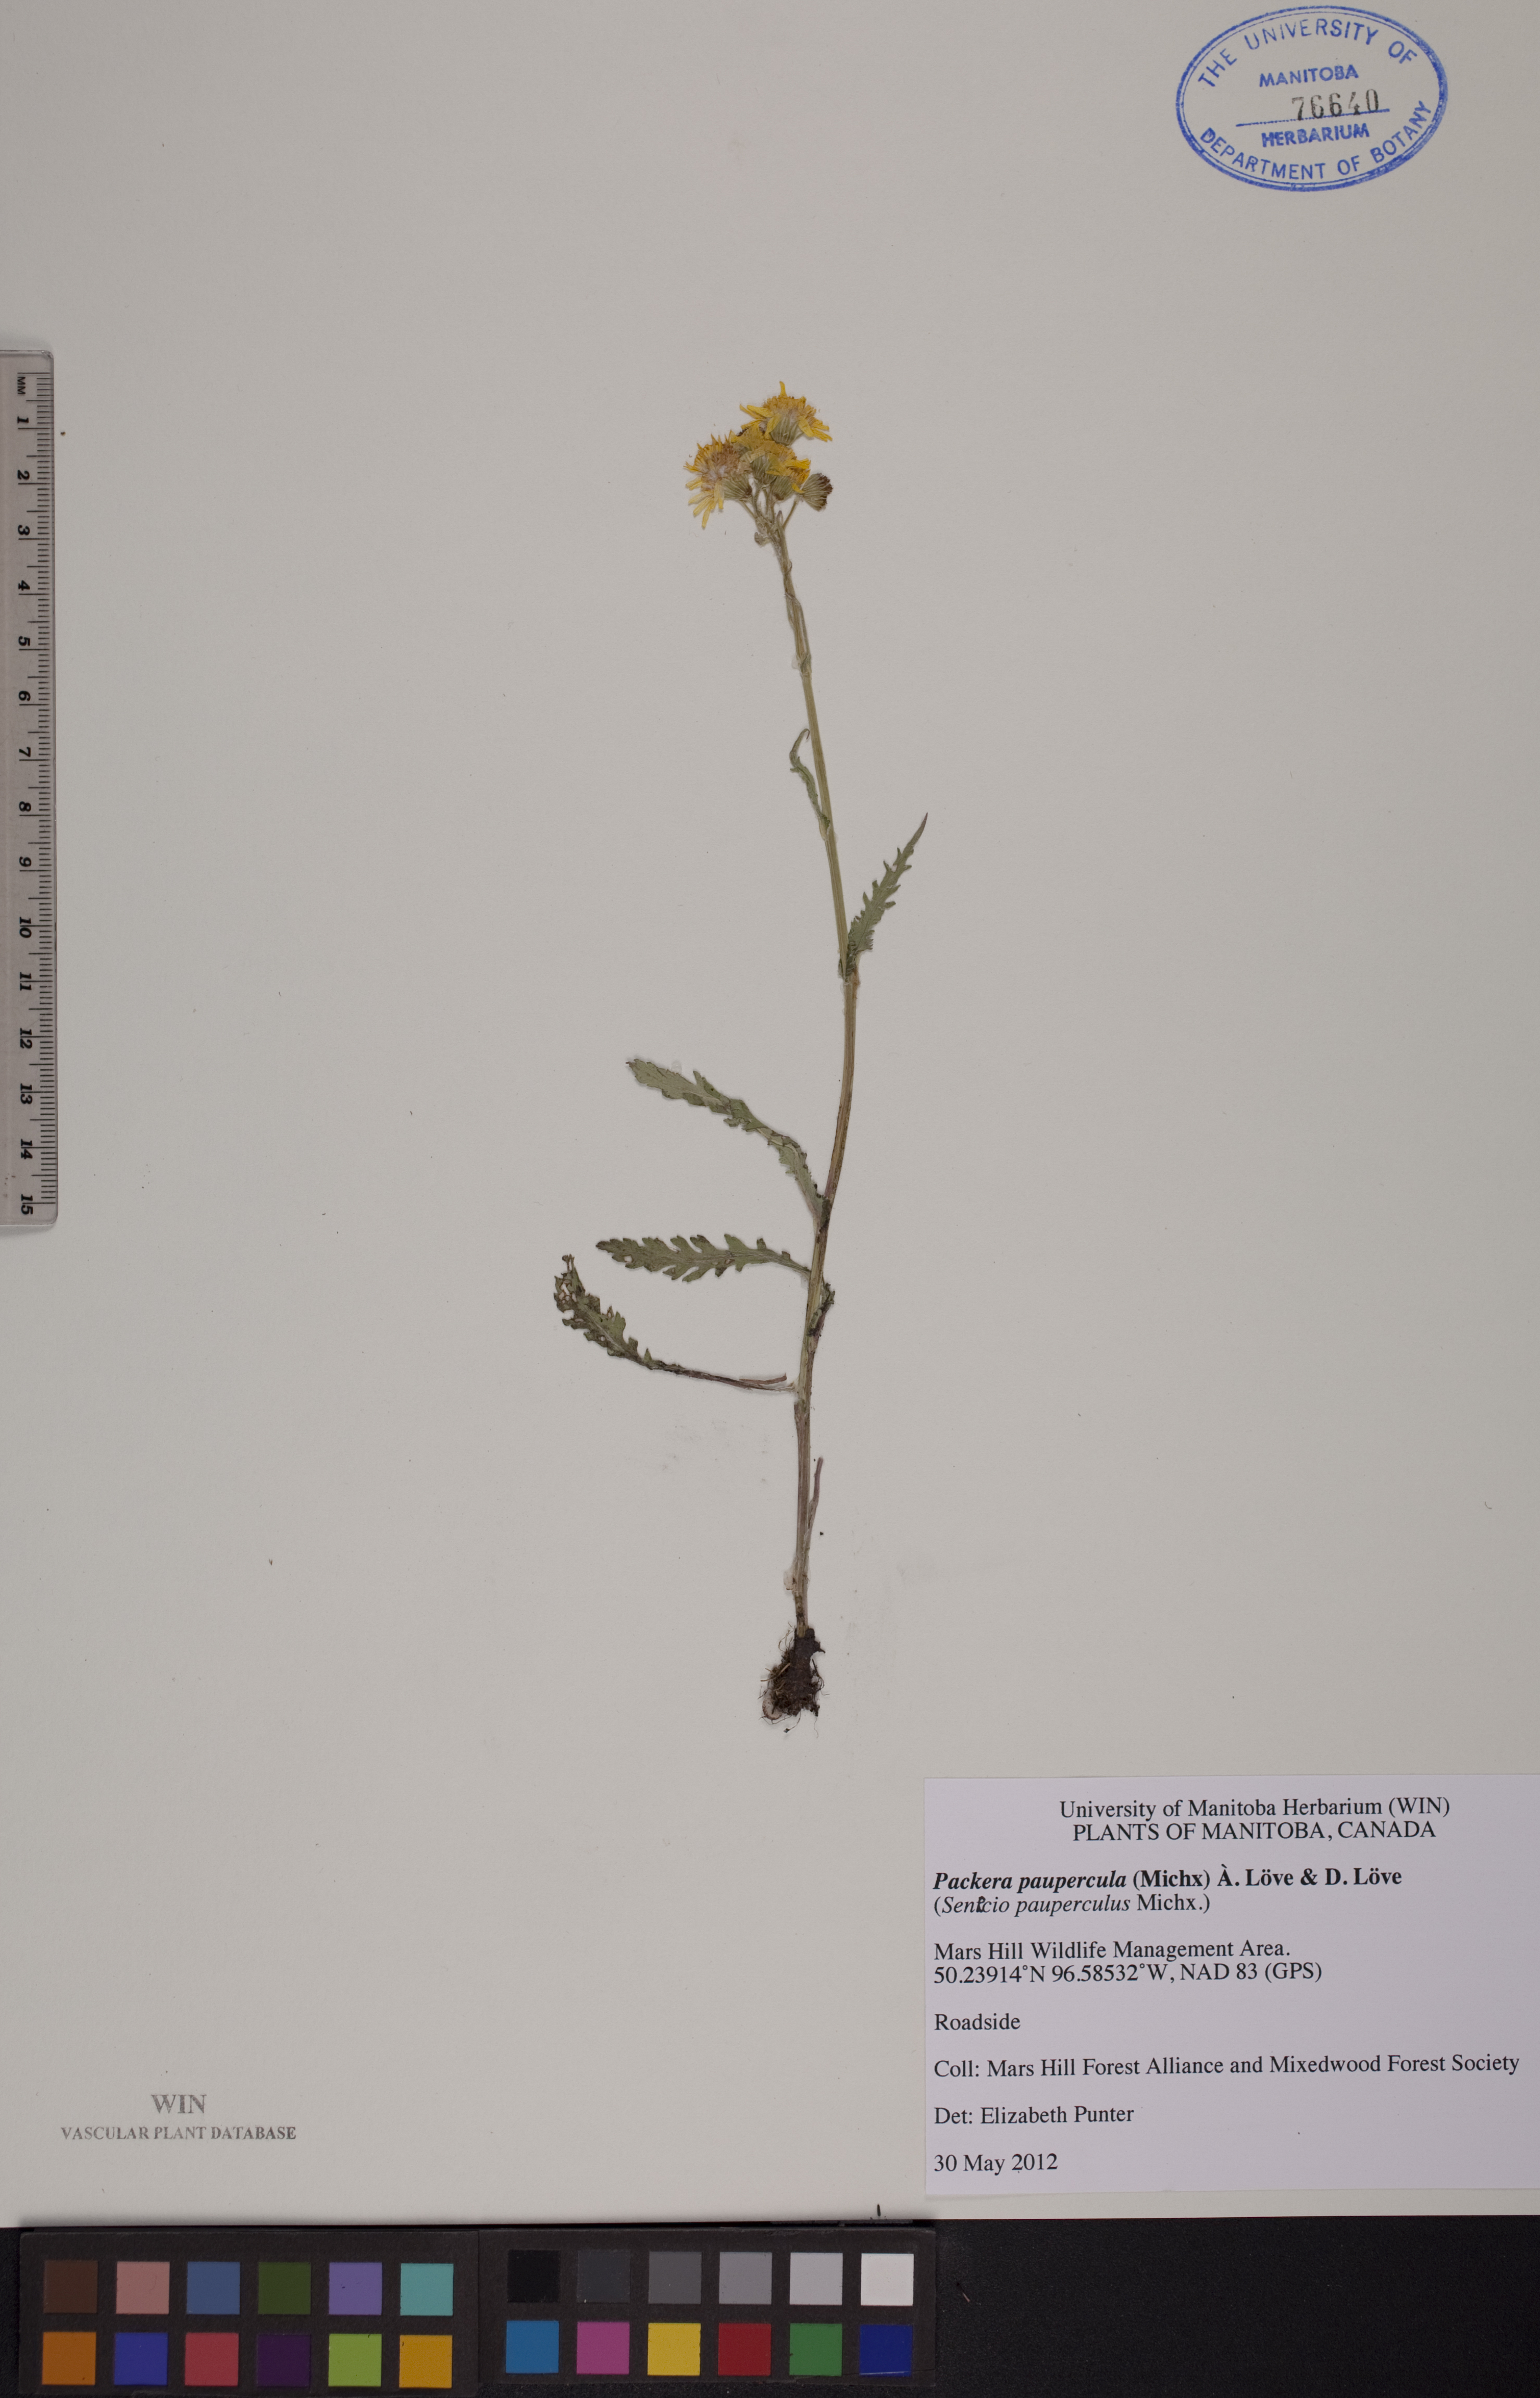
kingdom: Plantae
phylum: Tracheophyta
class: Magnoliopsida
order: Asterales
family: Asteraceae
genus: Packera
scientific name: Packera paupercula
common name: Balsam groundsel
